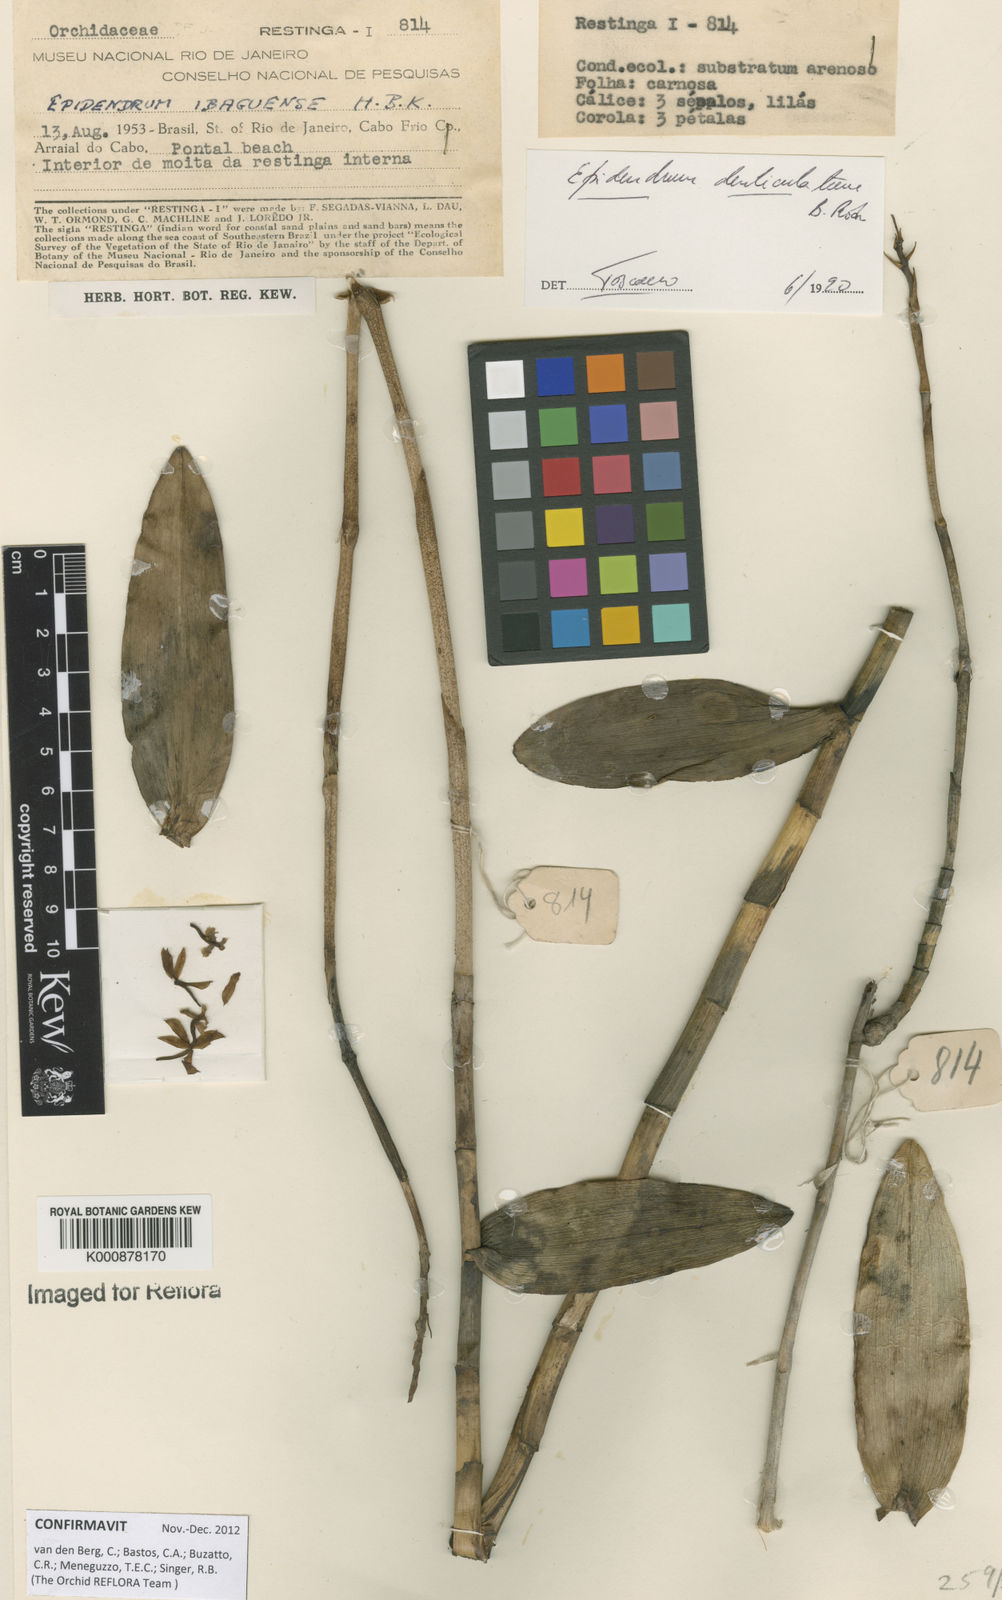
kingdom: Plantae
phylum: Tracheophyta
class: Liliopsida
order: Asparagales
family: Orchidaceae
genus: Epidendrum
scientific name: Epidendrum denticulatum
